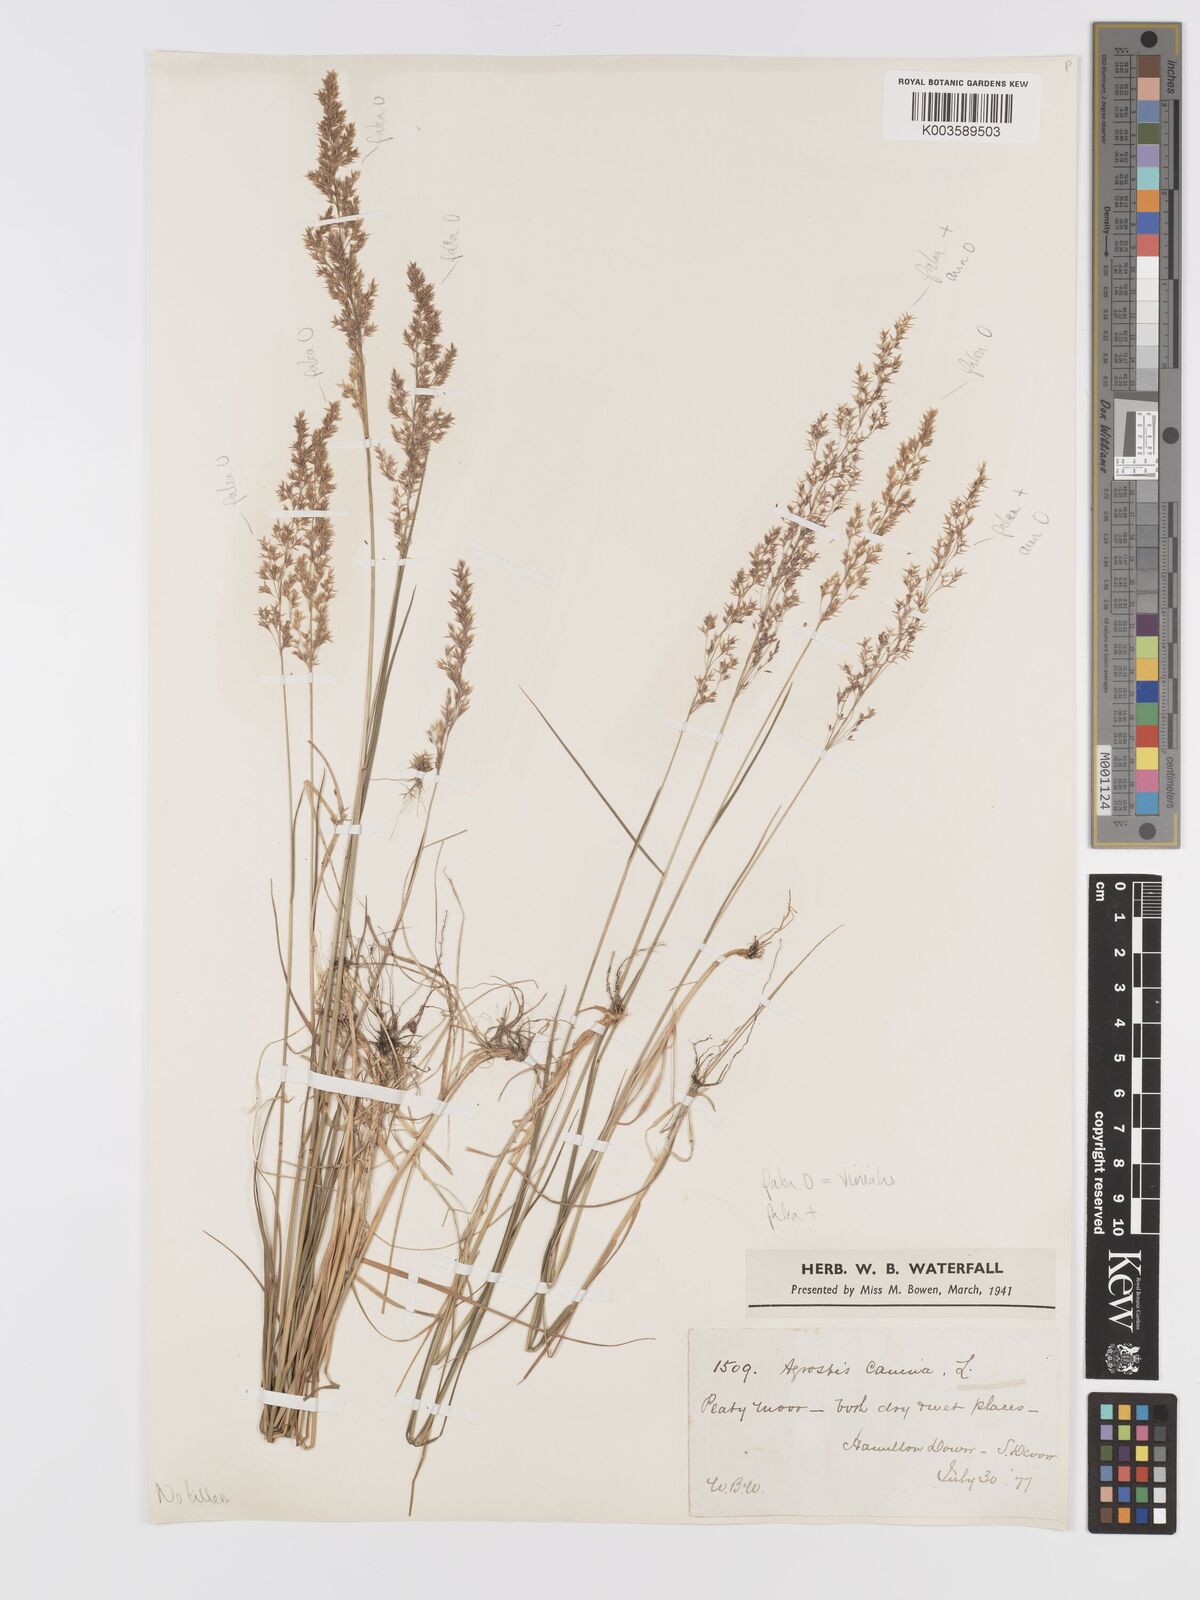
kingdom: Plantae
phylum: Tracheophyta
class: Liliopsida
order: Poales
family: Poaceae
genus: Agrostis
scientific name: Agrostis
